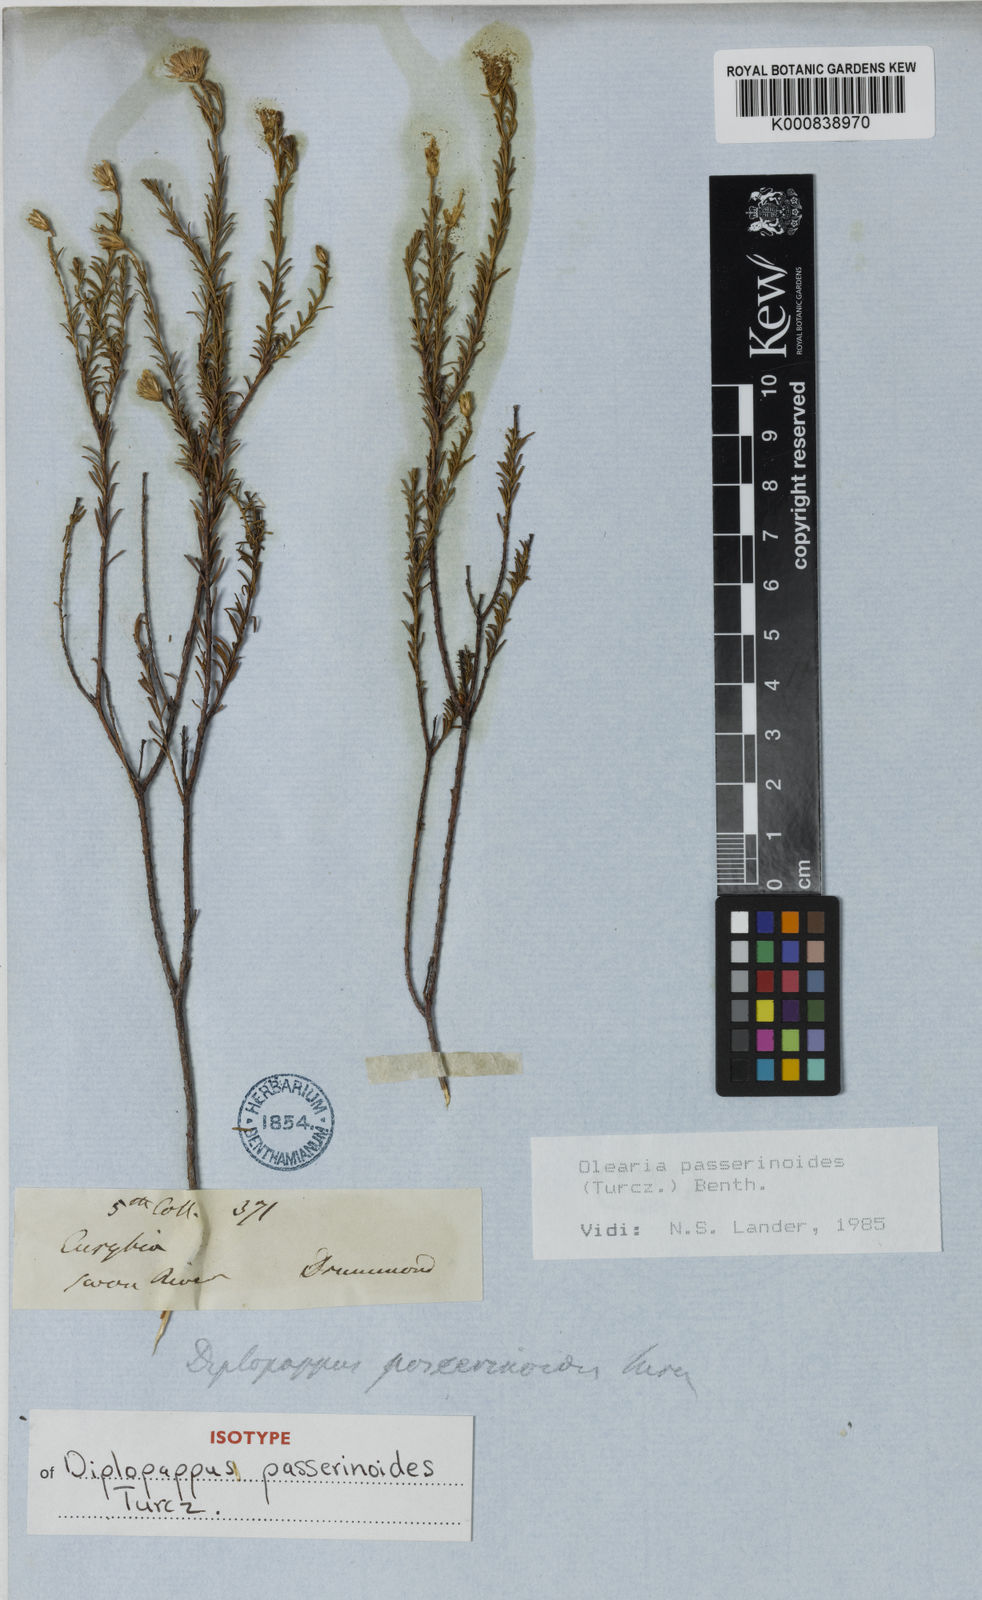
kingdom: Plantae
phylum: Tracheophyta
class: Magnoliopsida
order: Asterales
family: Asteraceae
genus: Olearia
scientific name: Olearia passerinoides
